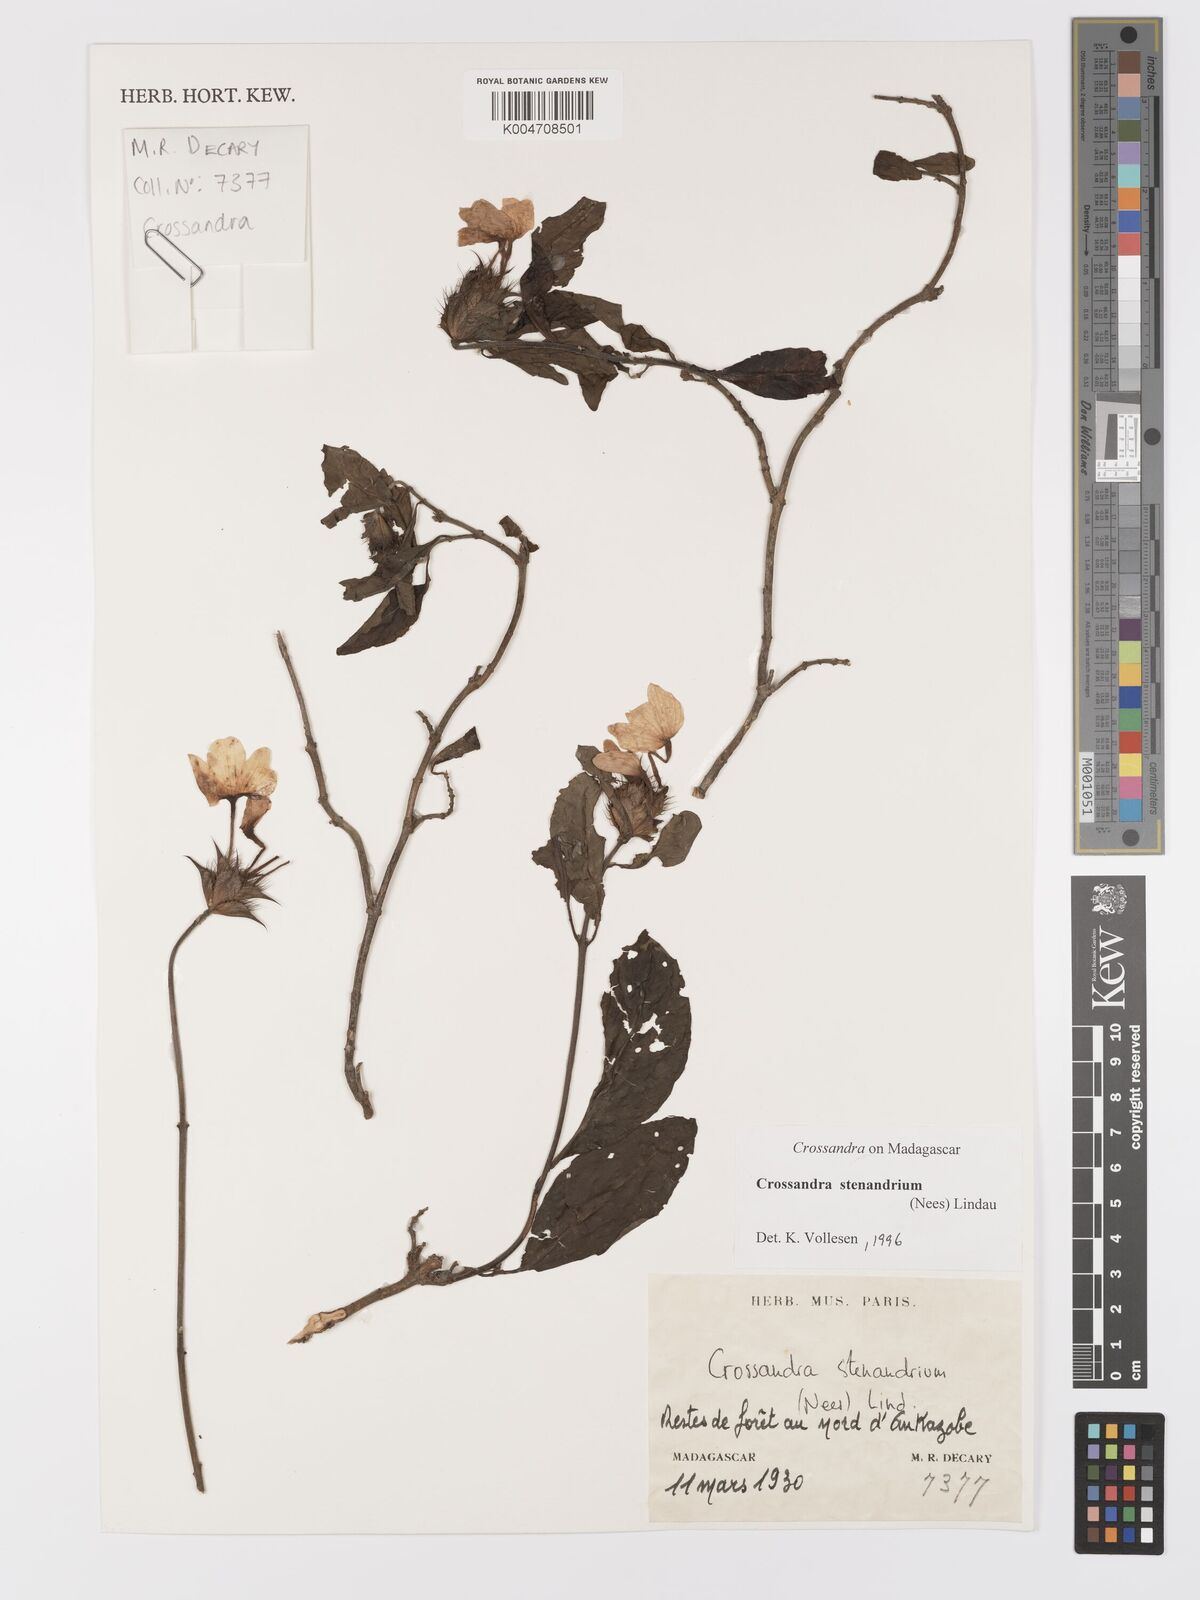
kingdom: Plantae
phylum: Tracheophyta
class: Magnoliopsida
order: Lamiales
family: Acanthaceae
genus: Crossandra
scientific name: Crossandra stenandrium
